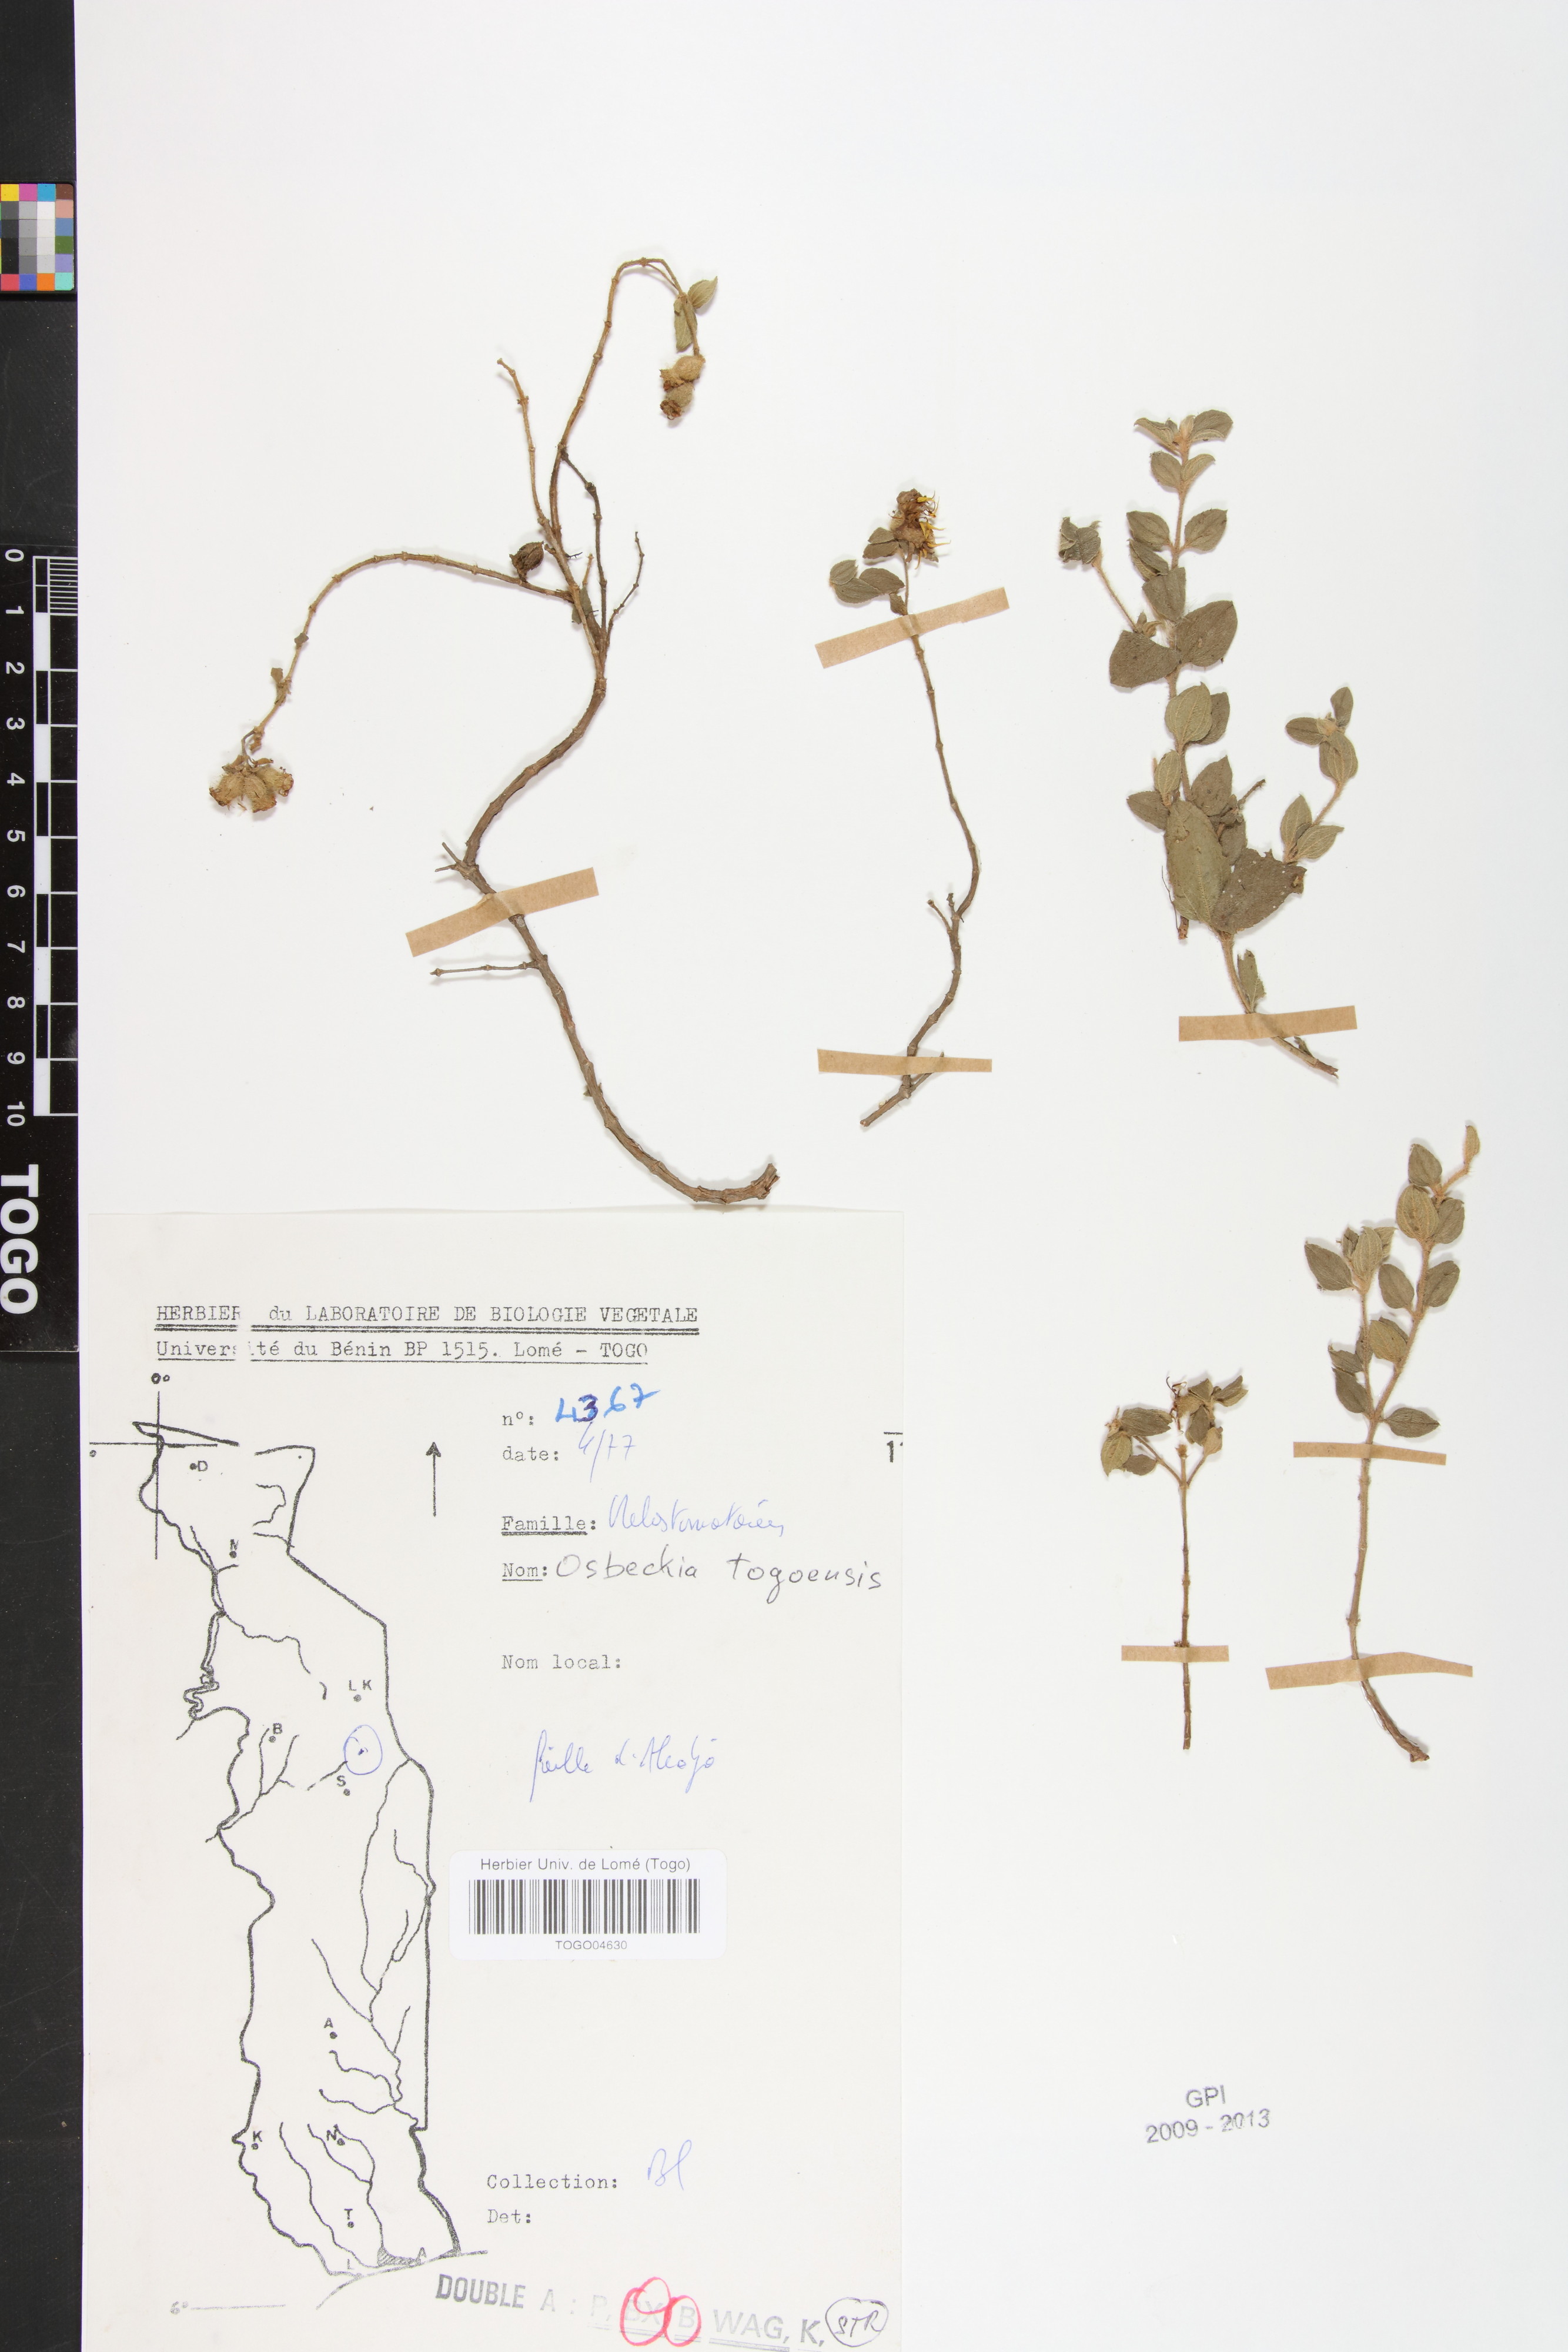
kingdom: Plantae
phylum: Tracheophyta
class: Magnoliopsida
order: Myrtales
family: Melastomataceae
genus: Nerophila
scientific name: Nerophila togoensis
